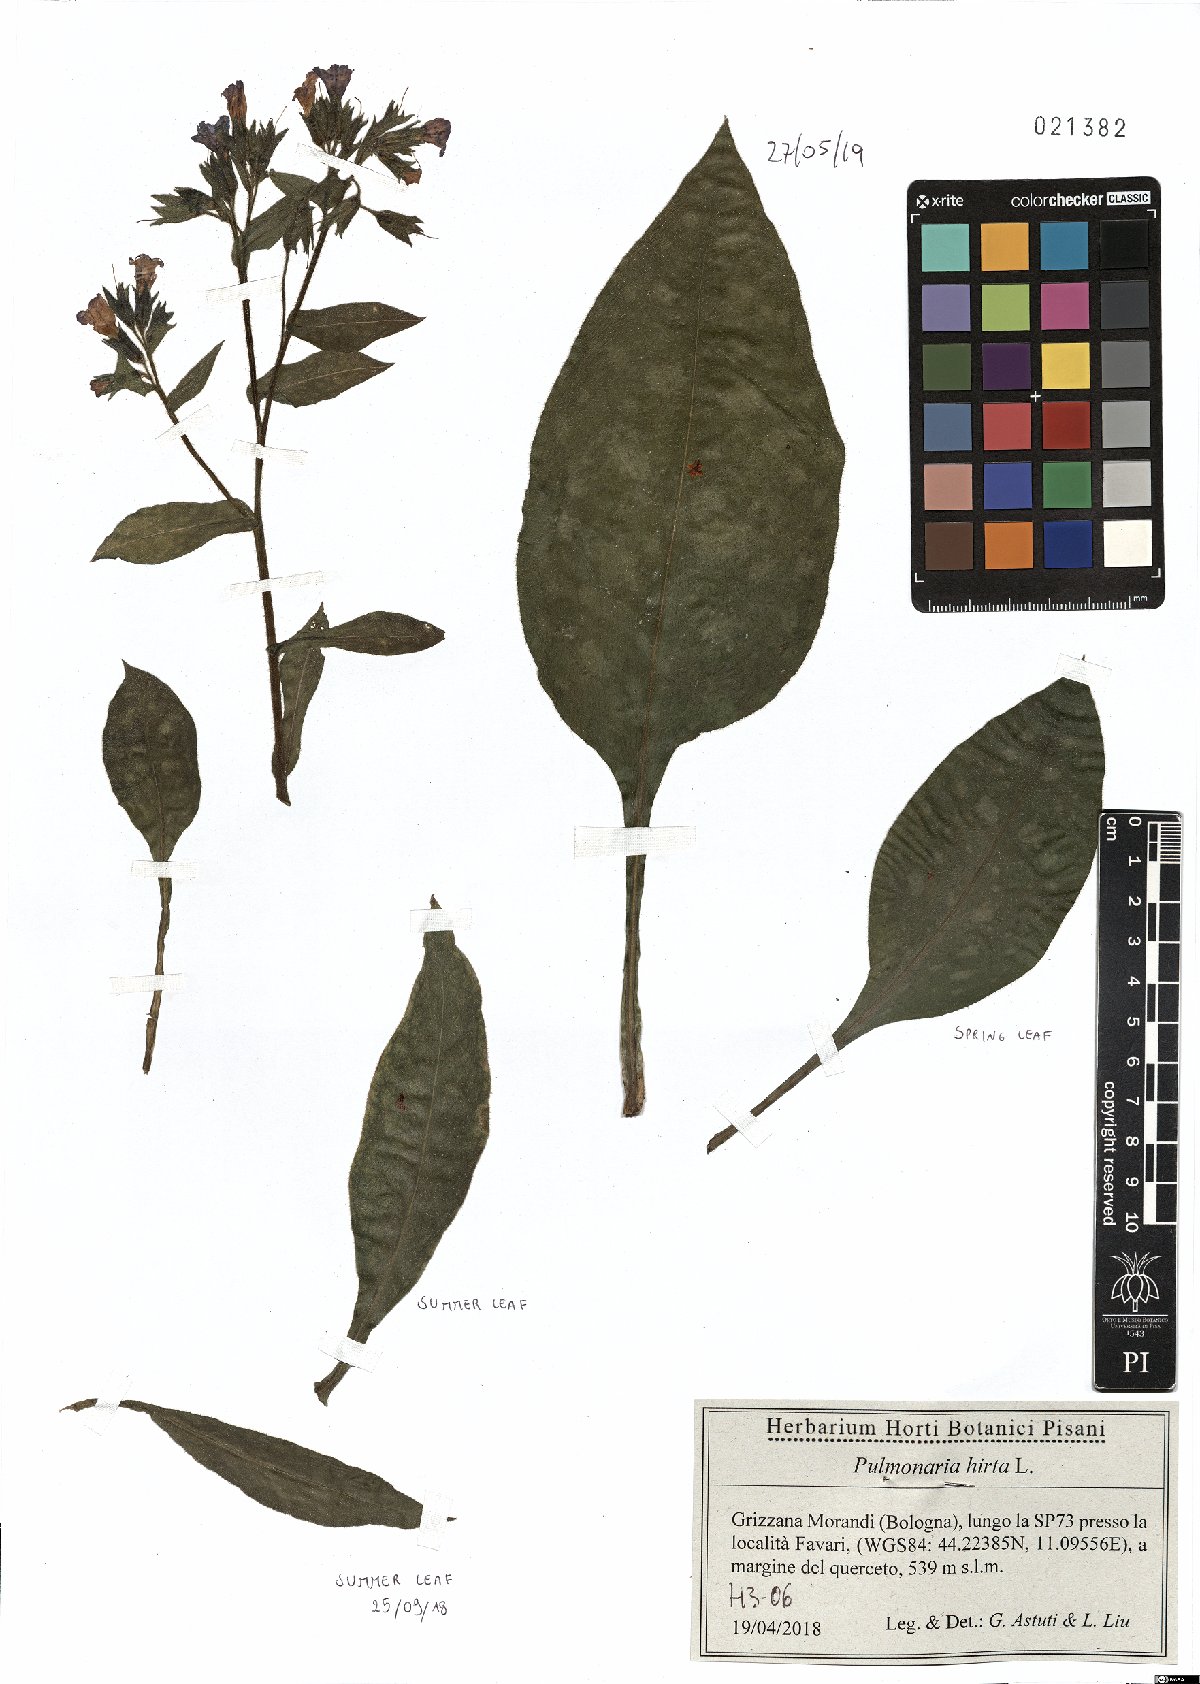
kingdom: Plantae
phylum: Tracheophyta
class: Magnoliopsida
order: Boraginales
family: Boraginaceae
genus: Pulmonaria
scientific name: Pulmonaria hirta
